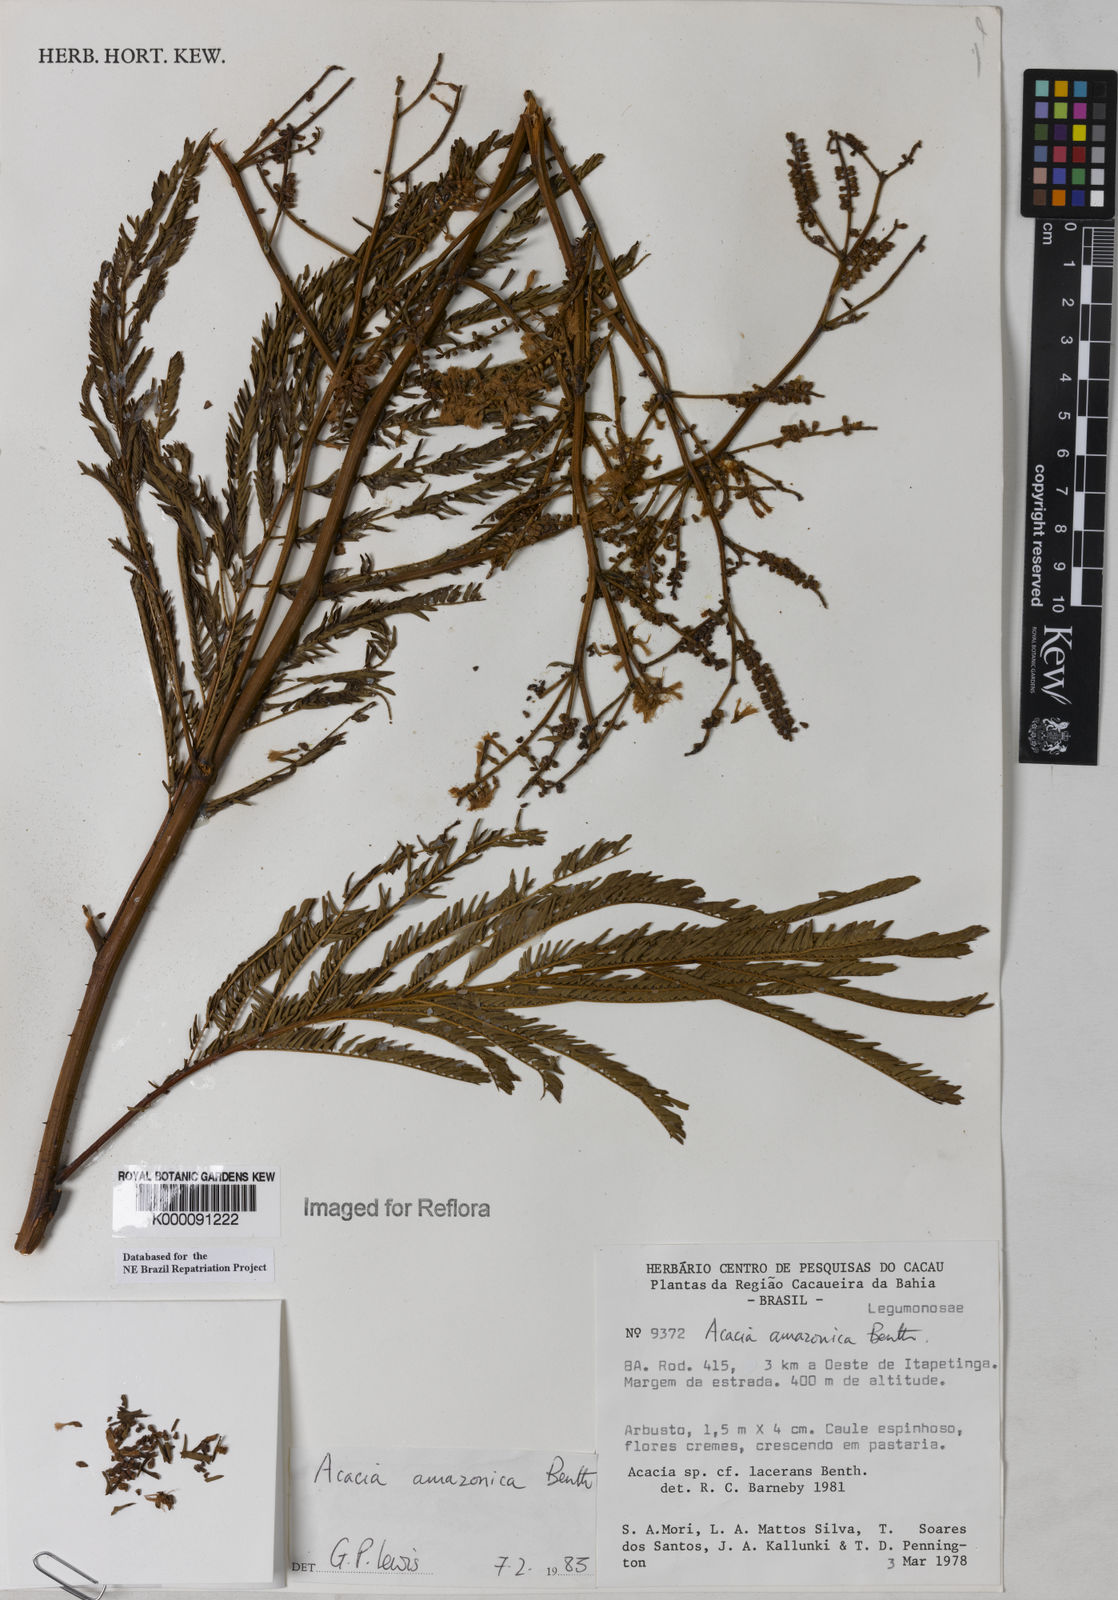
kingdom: Plantae
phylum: Tracheophyta
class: Magnoliopsida
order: Fabales
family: Fabaceae
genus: Senegalia
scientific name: Senegalia amazonica
